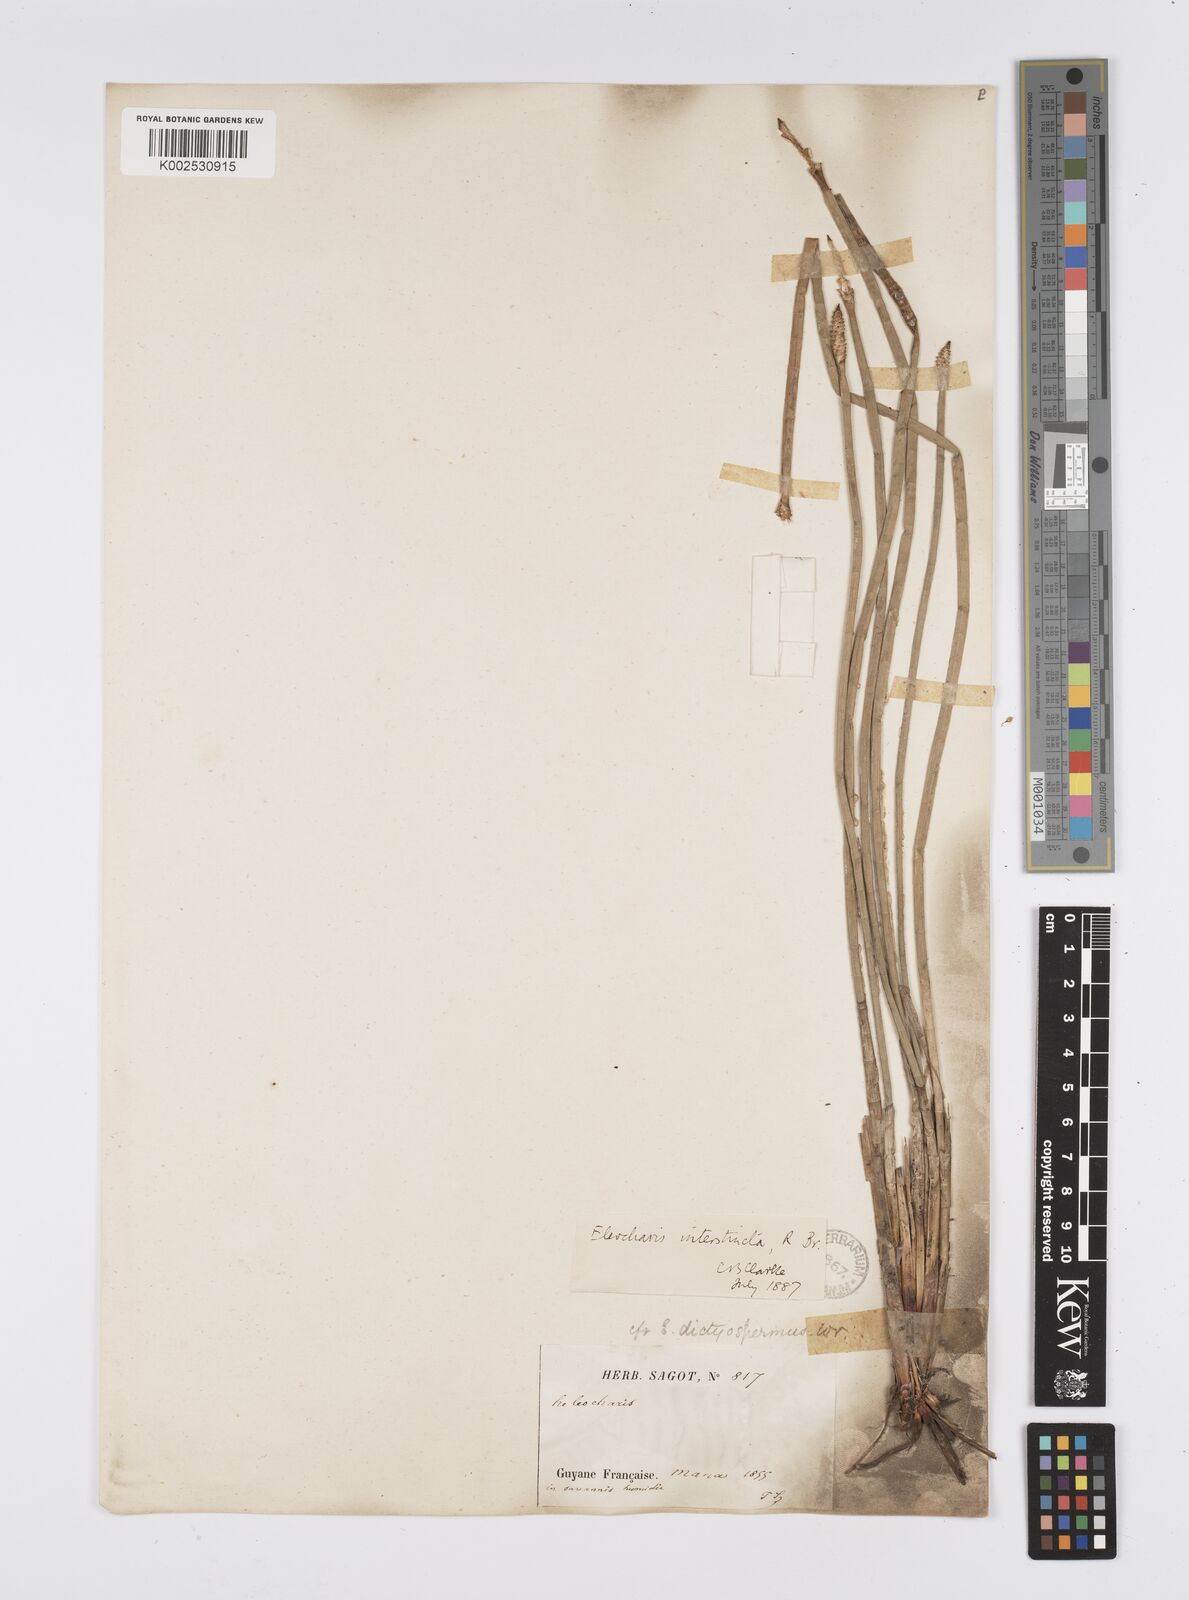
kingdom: Plantae
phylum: Tracheophyta
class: Liliopsida
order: Poales
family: Cyperaceae
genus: Eleocharis
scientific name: Eleocharis interstincta
